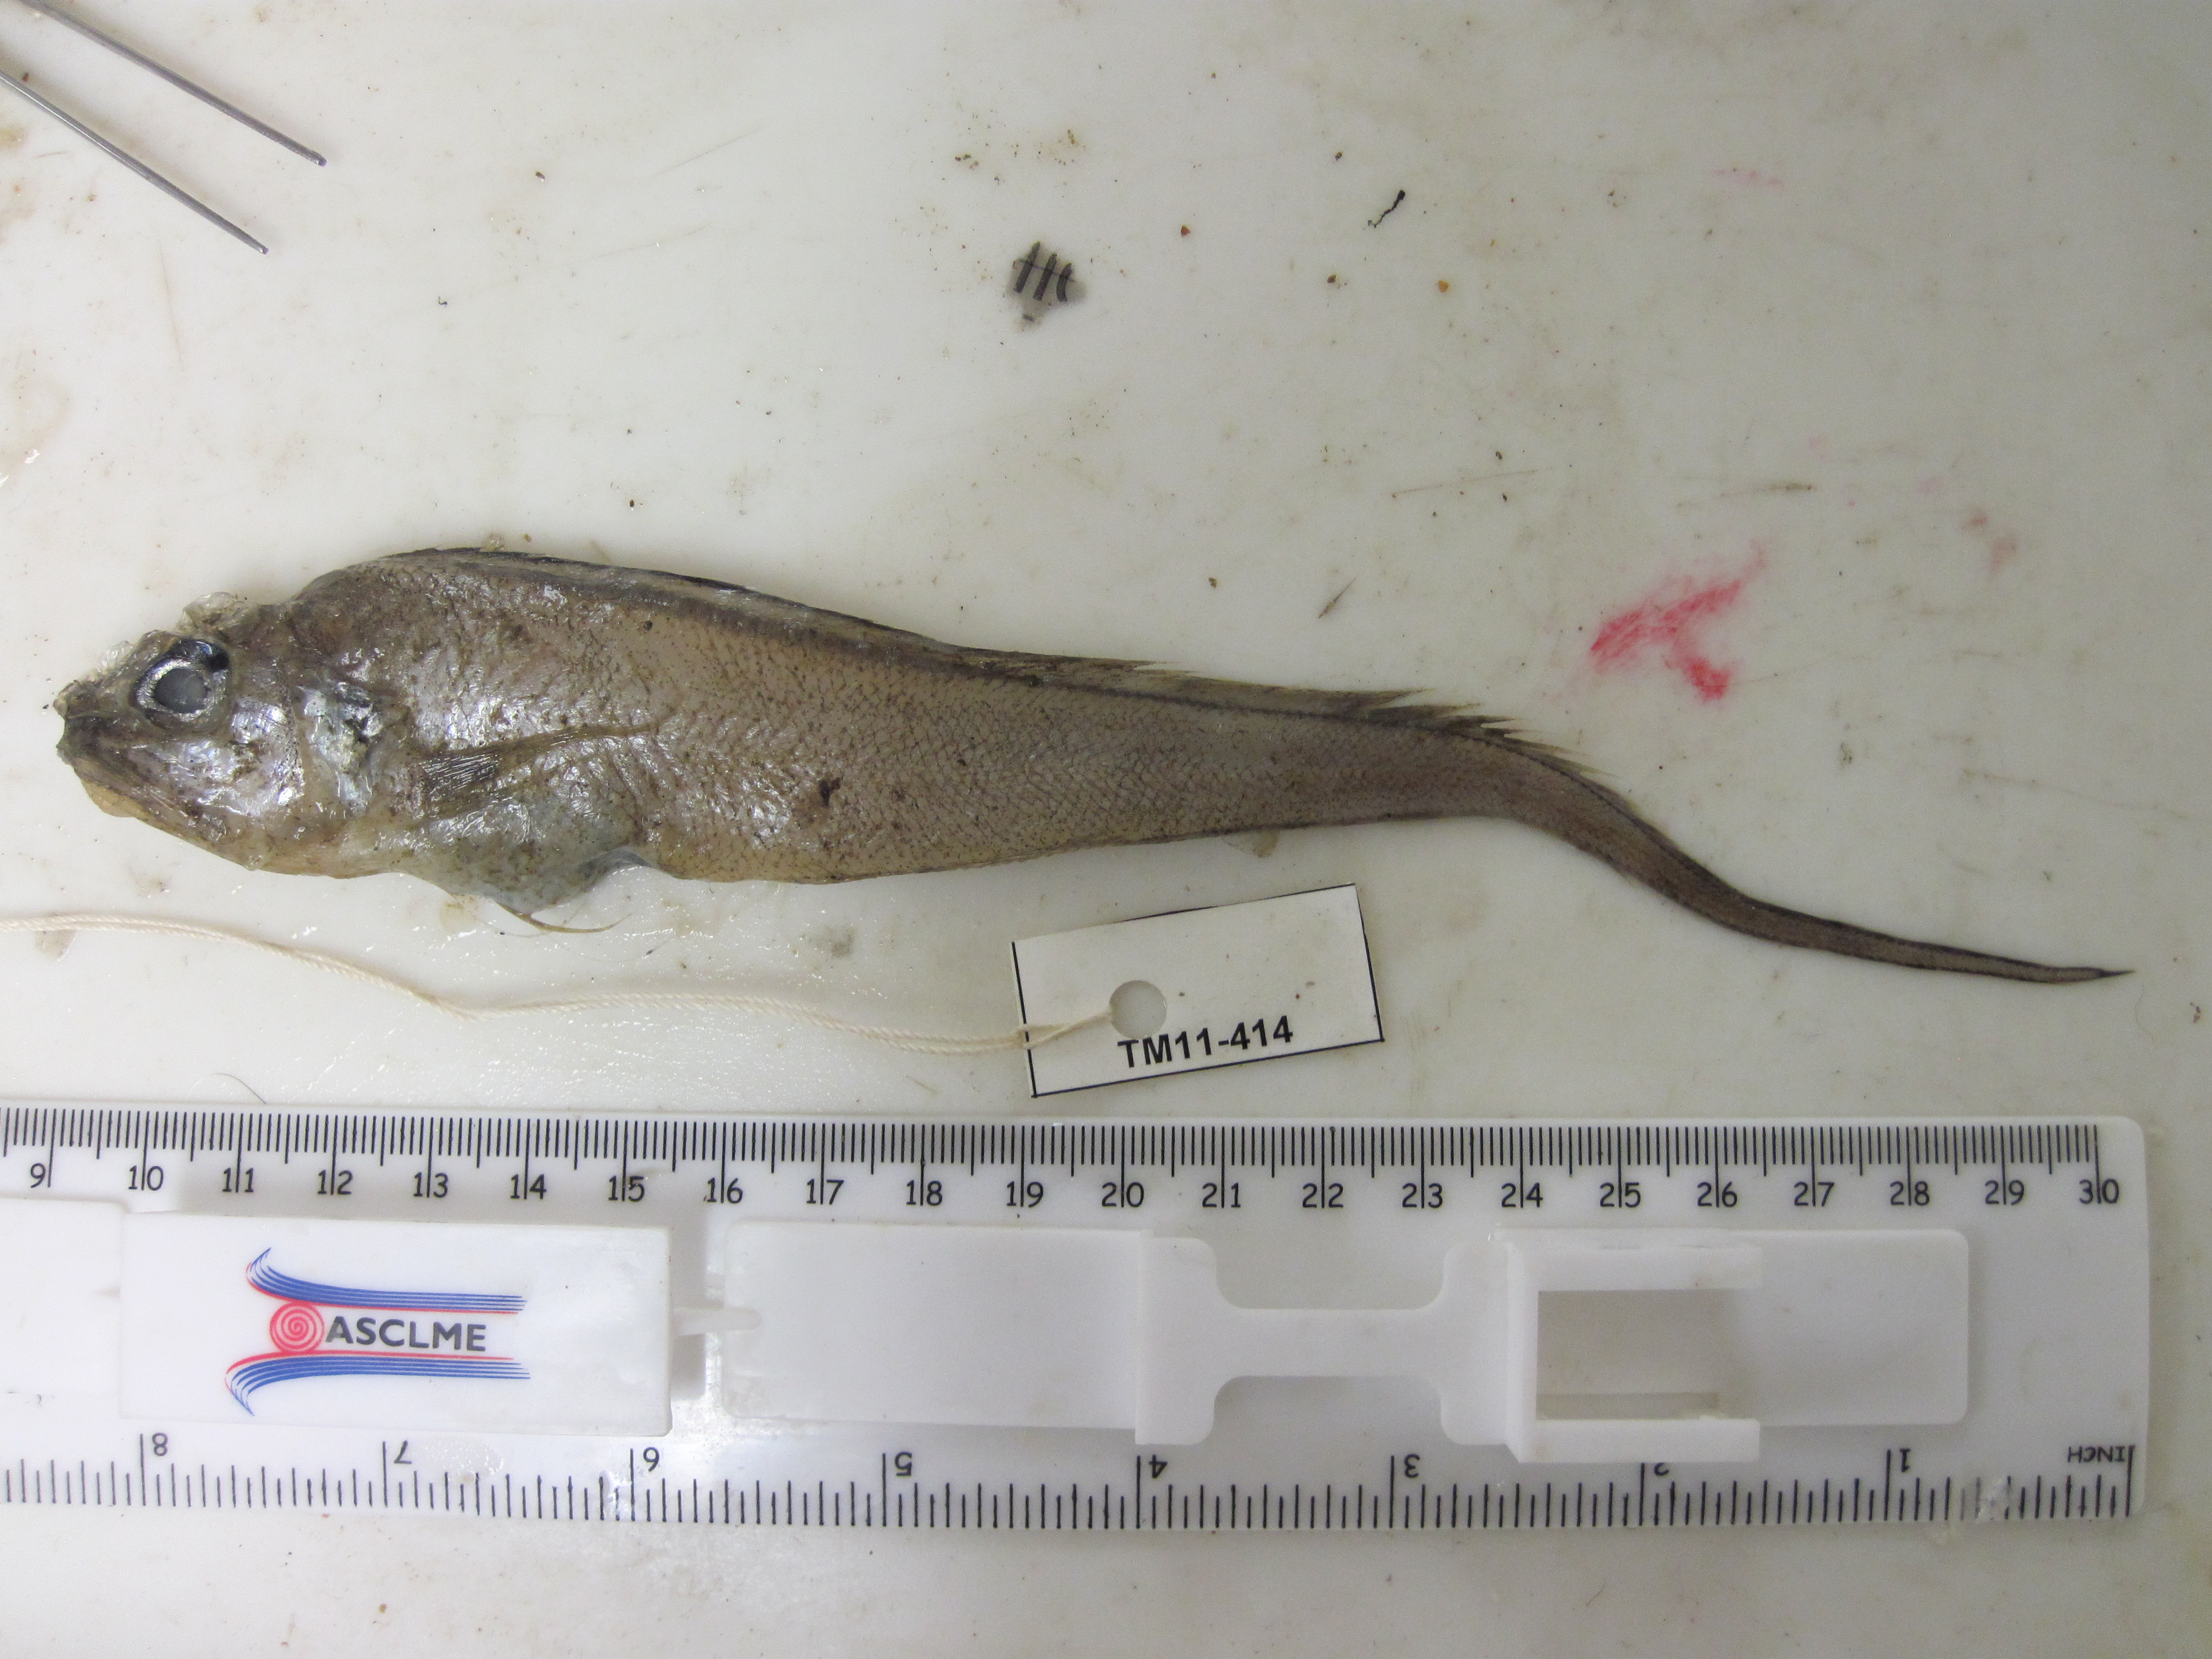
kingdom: Animalia
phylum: Chordata
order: Ophidiiformes
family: Ophidiidae
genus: Glyptophidium
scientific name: Glyptophidium longipes
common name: Bigeye brotula
